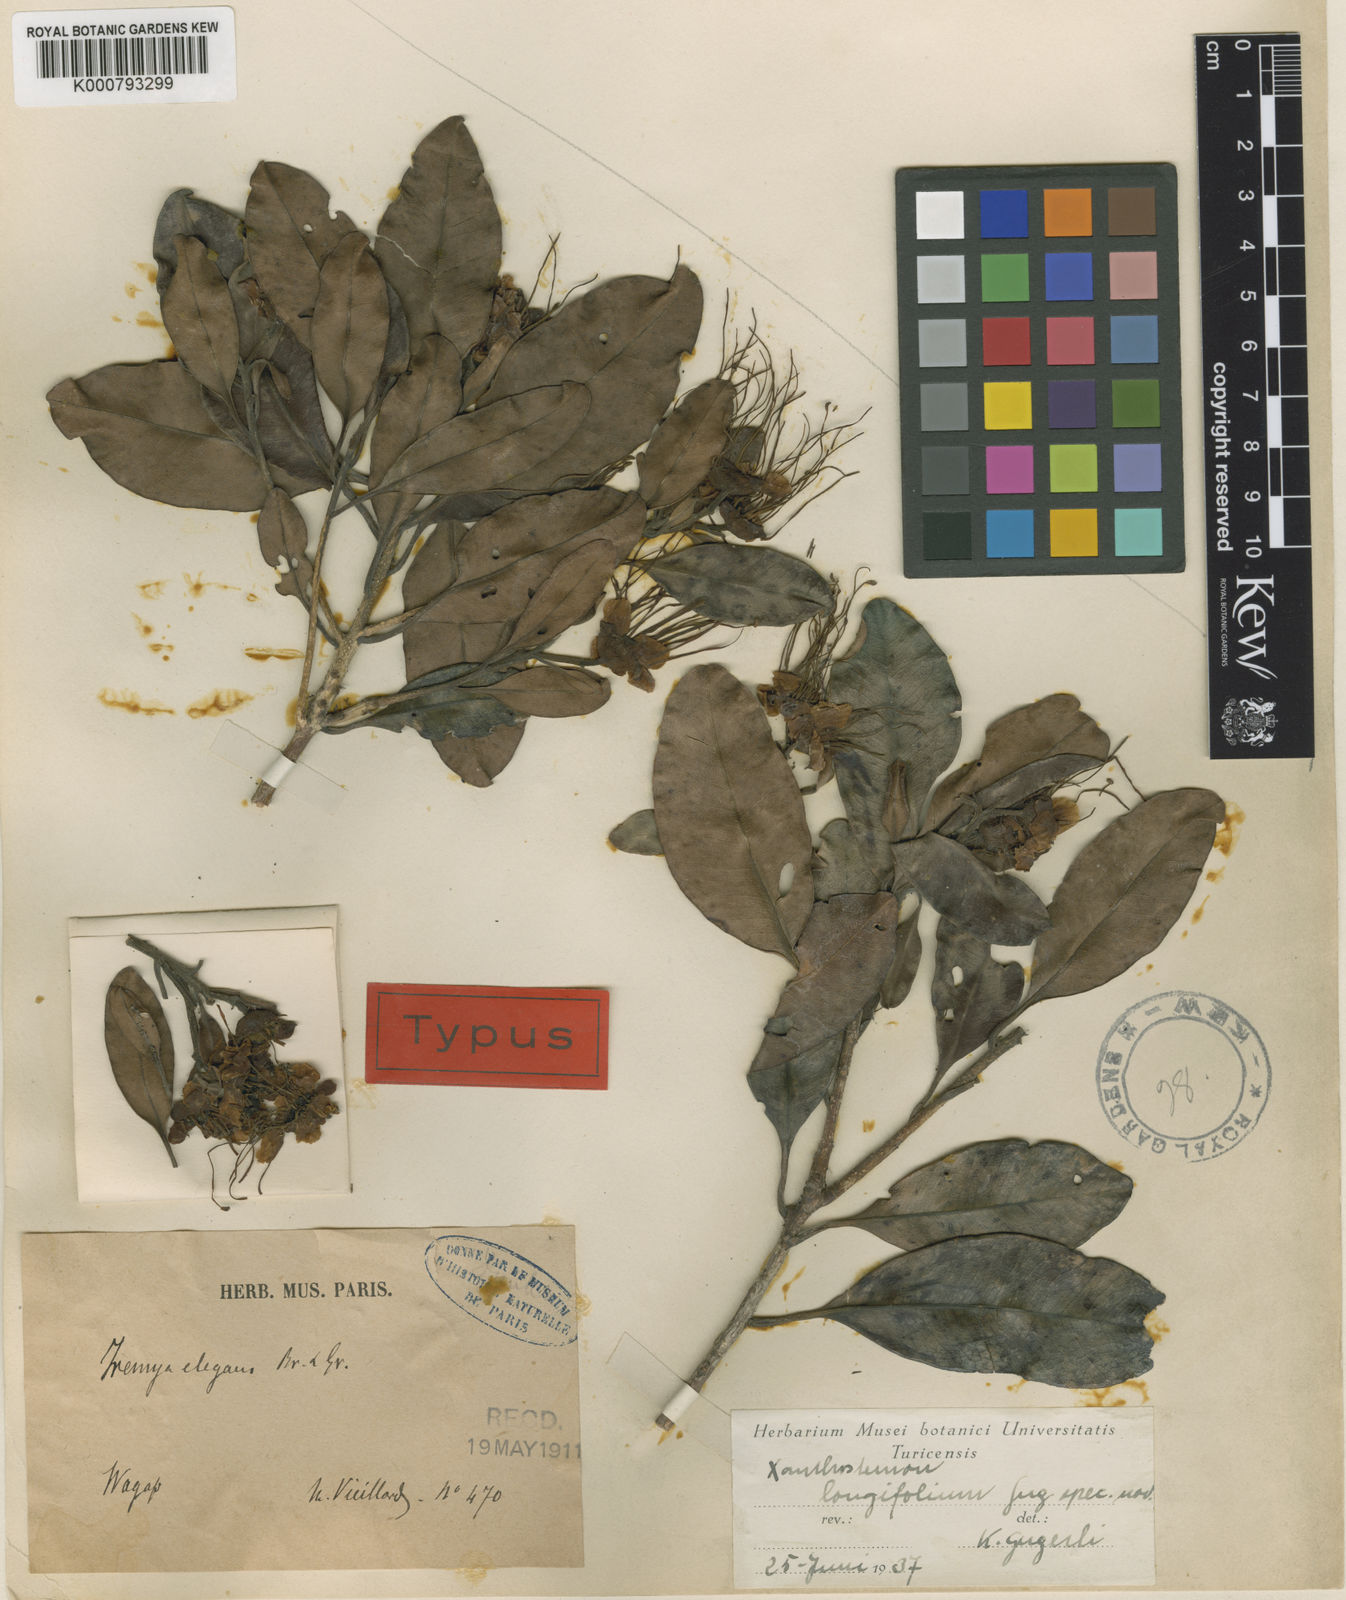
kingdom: Plantae
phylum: Tracheophyta
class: Magnoliopsida
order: Myrtales
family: Myrtaceae
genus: Xanthostemon
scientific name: Xanthostemon multiflorus
